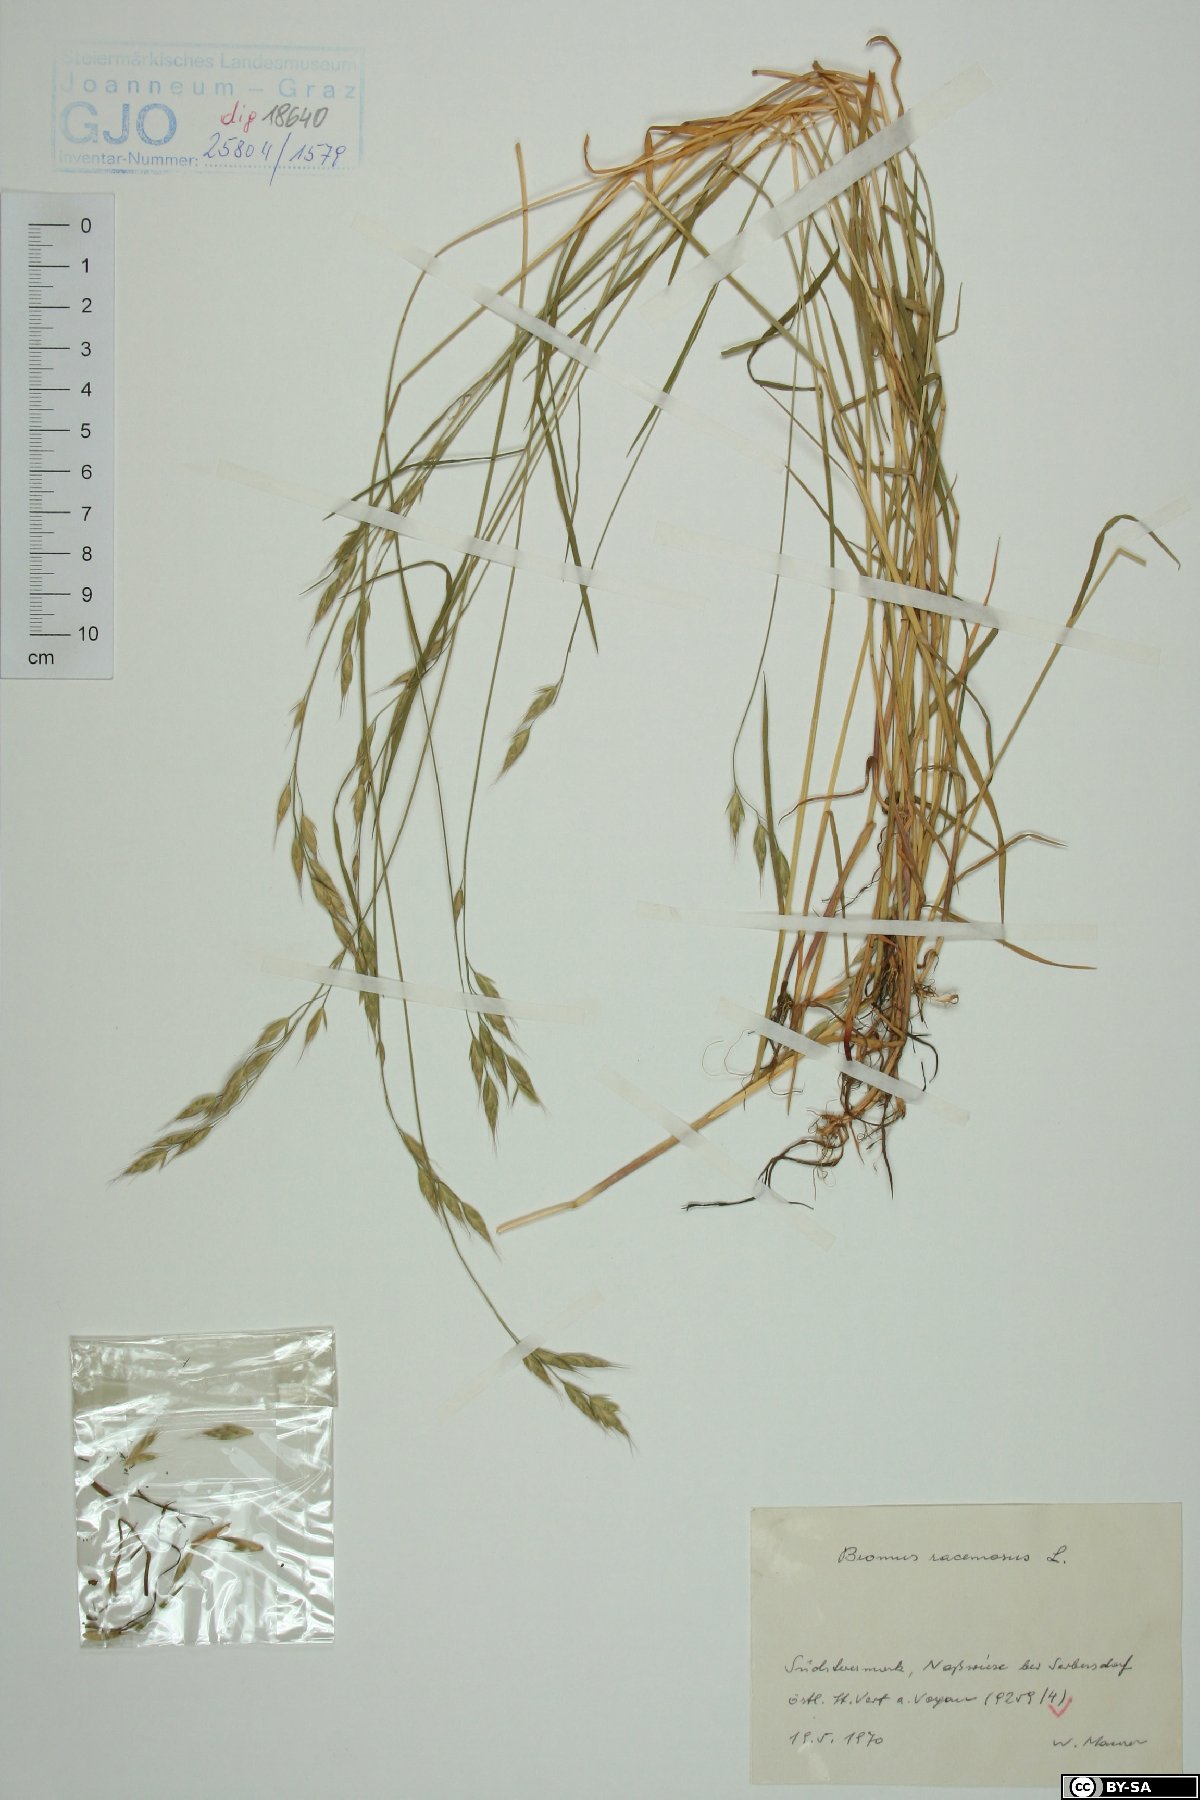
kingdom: Plantae
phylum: Tracheophyta
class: Liliopsida
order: Poales
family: Poaceae
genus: Bromus
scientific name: Bromus racemosus
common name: Bald brome
